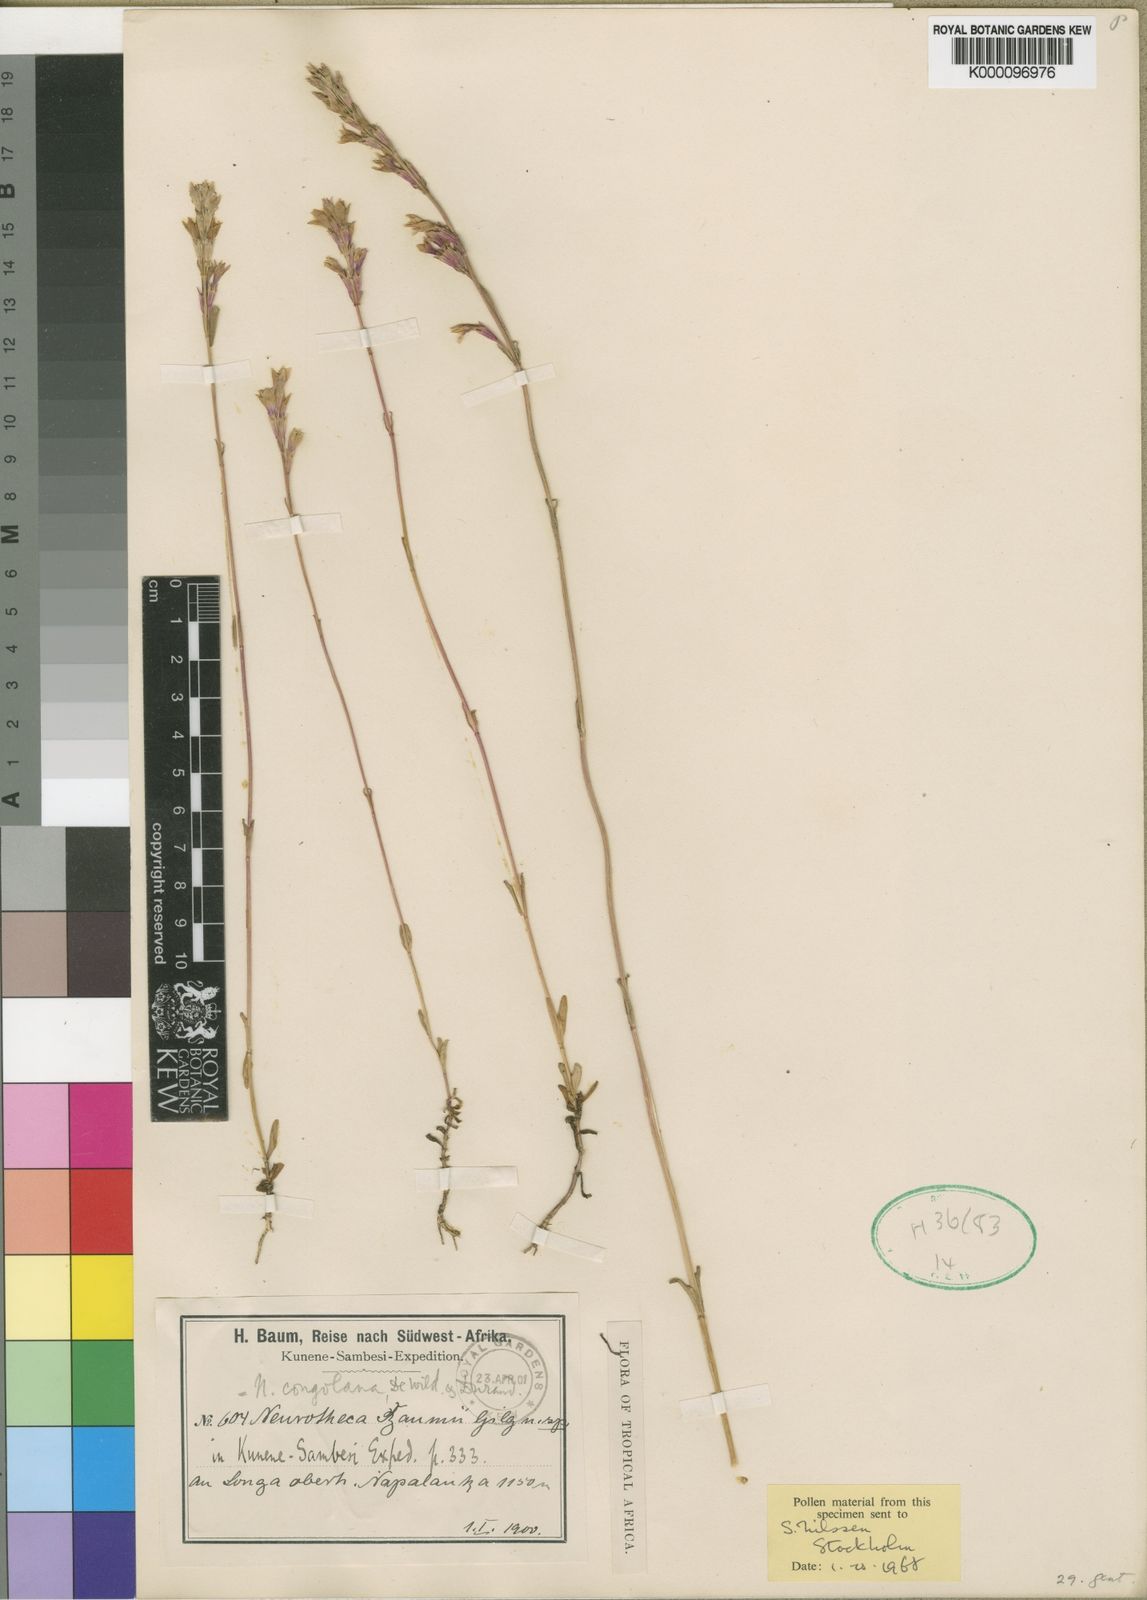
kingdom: Plantae
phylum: Tracheophyta
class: Magnoliopsida
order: Gentianales
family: Gentianaceae
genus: Neurotheca
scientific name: Neurotheca congolana
